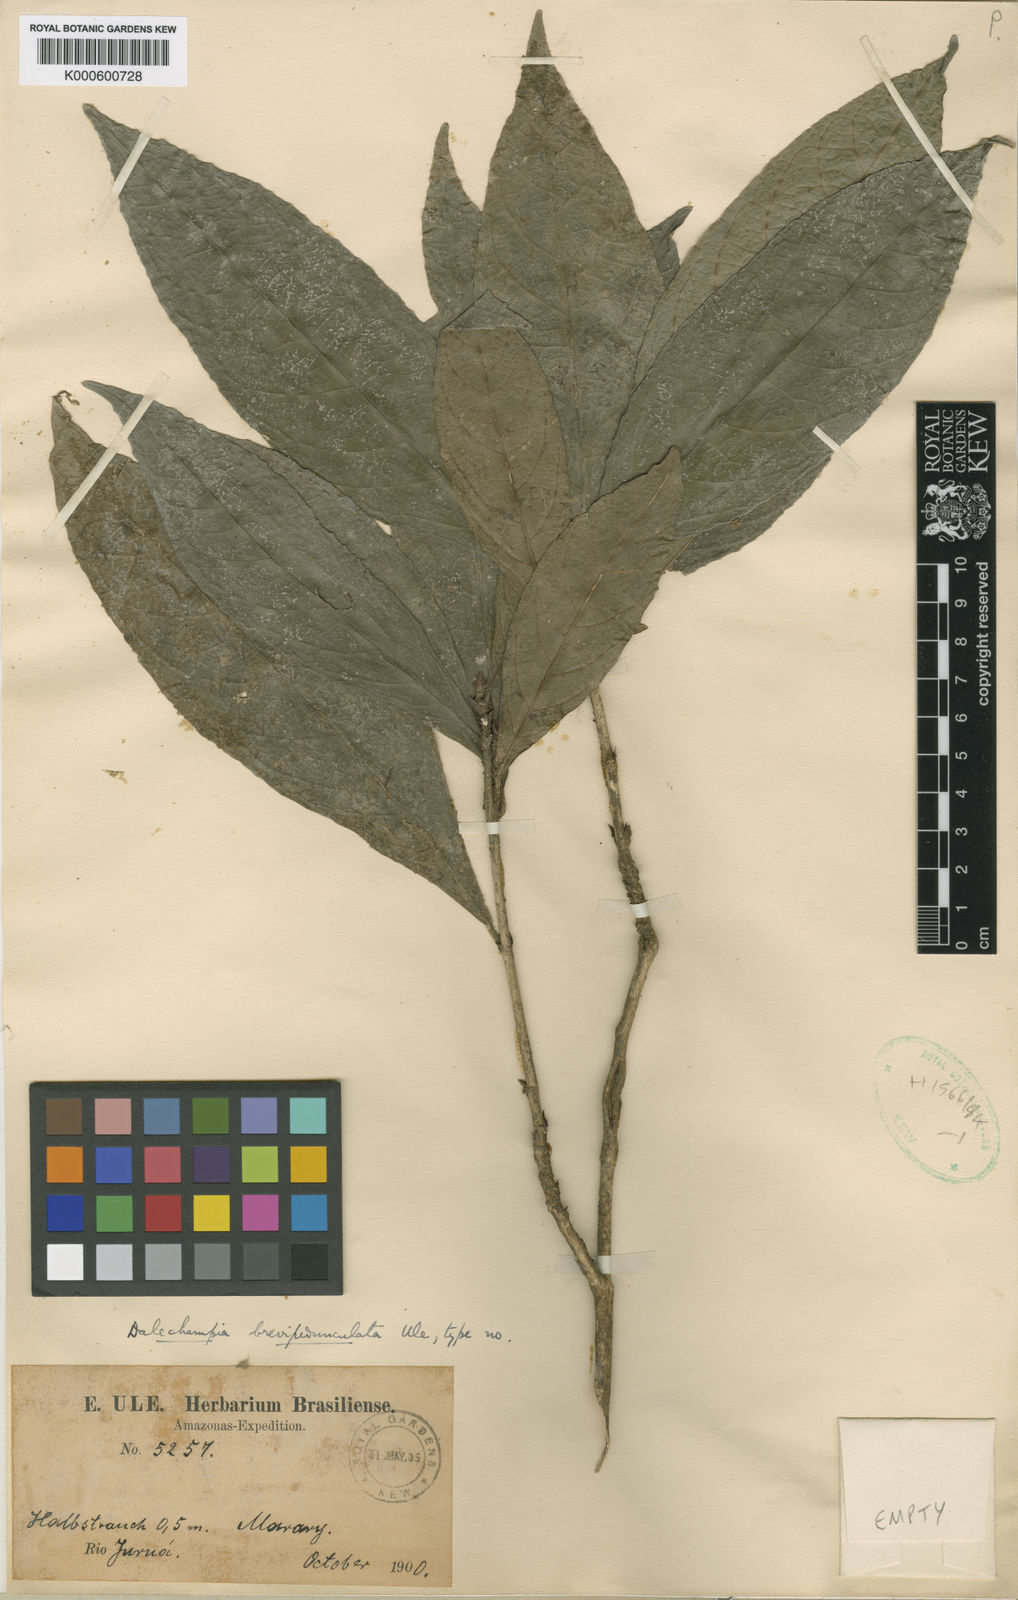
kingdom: Plantae
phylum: Tracheophyta
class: Magnoliopsida
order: Malpighiales
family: Euphorbiaceae
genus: Dalechampia
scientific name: Dalechampia magnoliifolia
